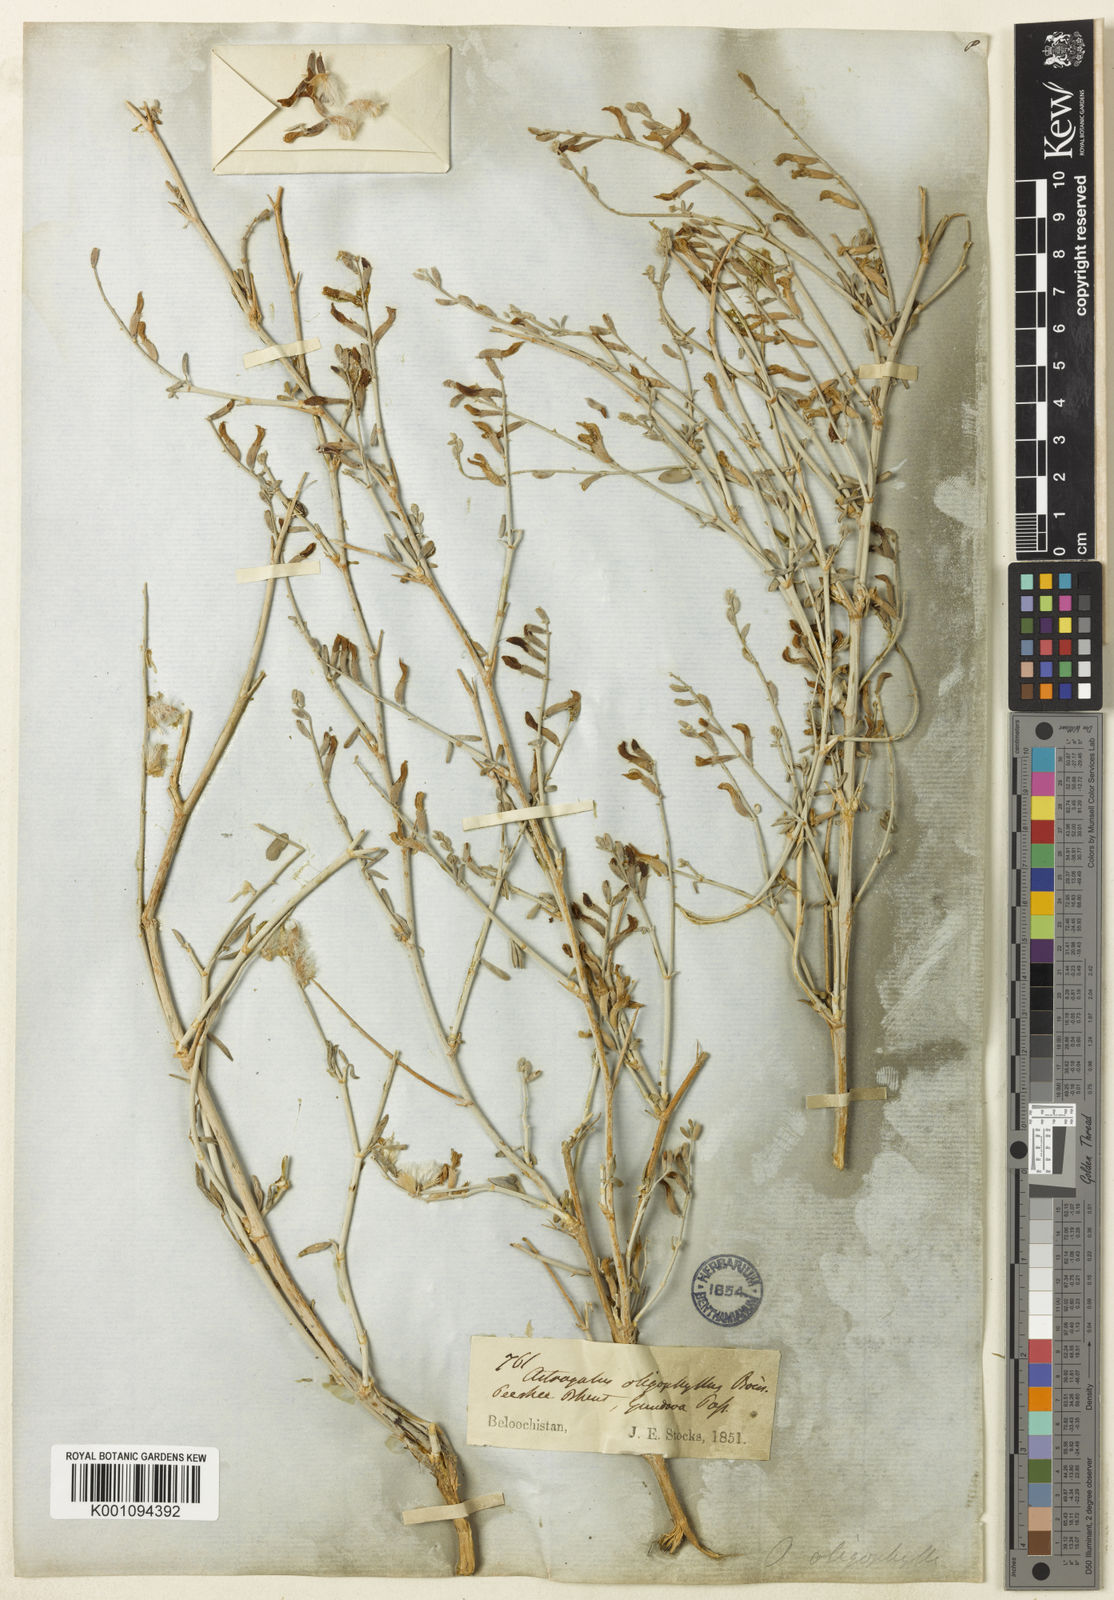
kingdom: Plantae
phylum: Tracheophyta
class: Magnoliopsida
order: Fabales
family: Fabaceae
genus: Astragalus
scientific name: Astragalus
